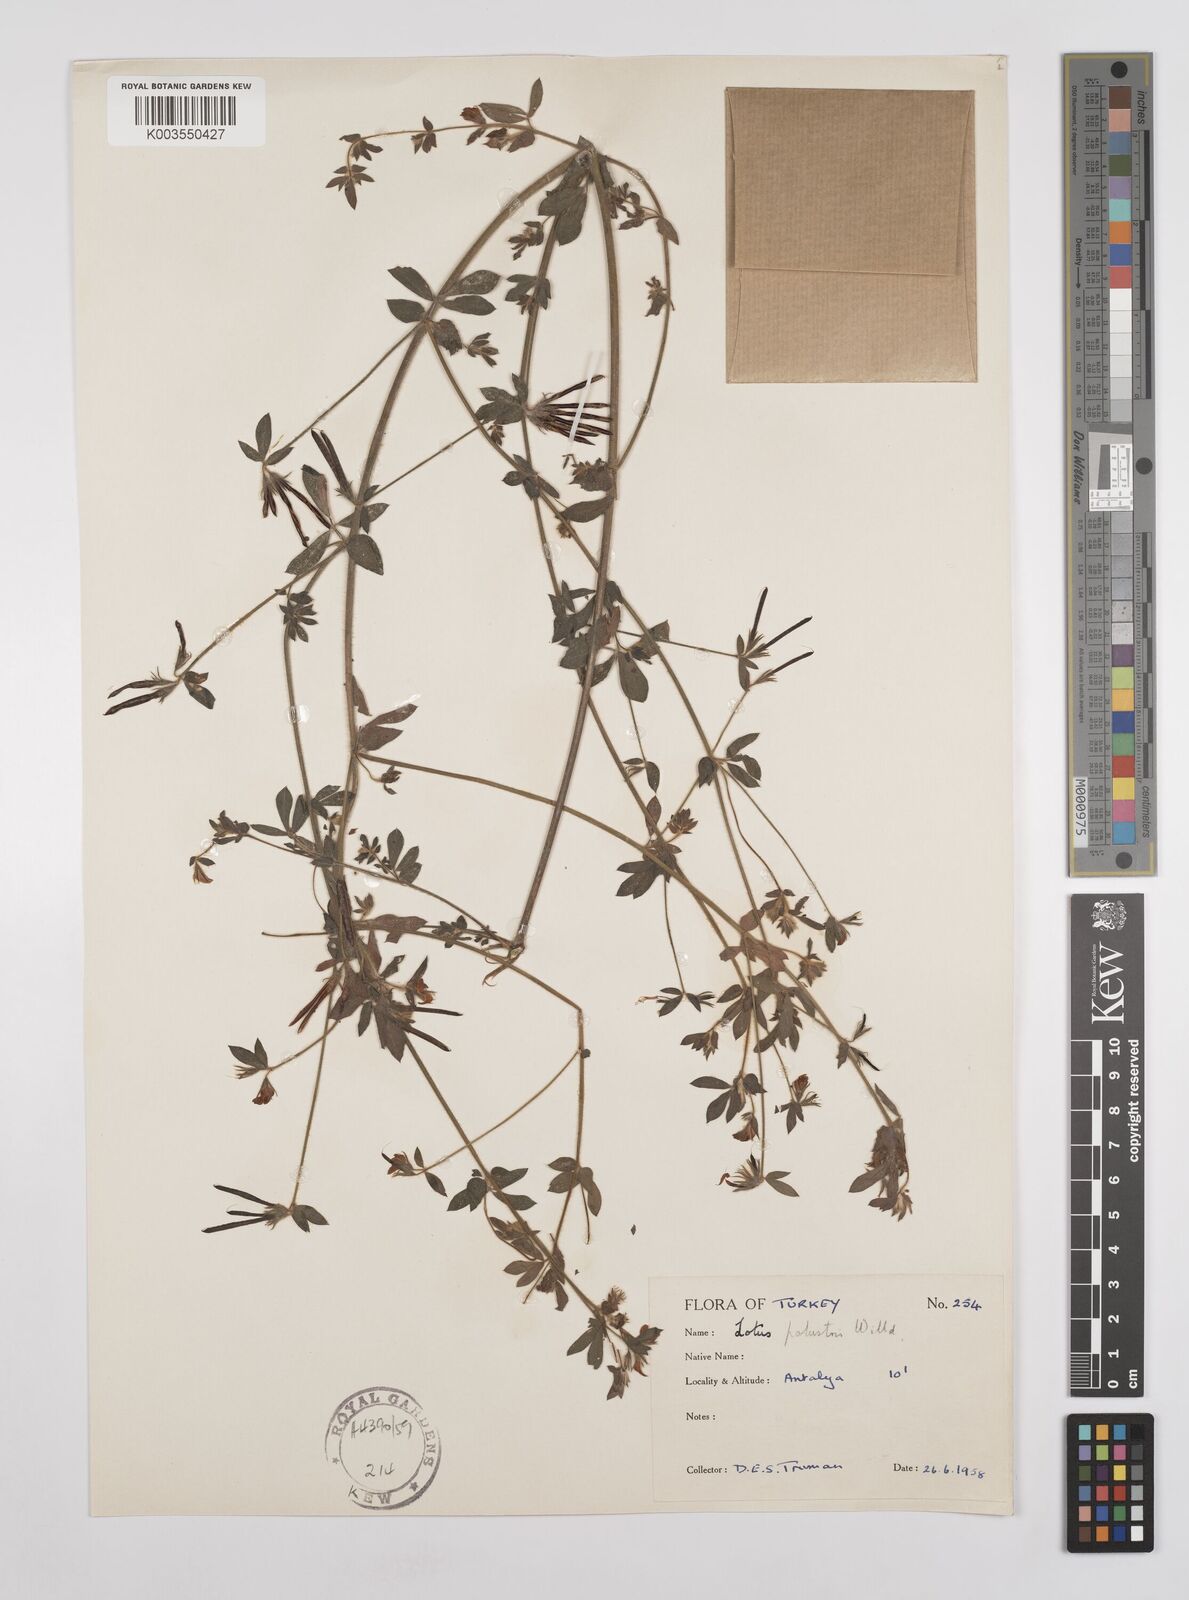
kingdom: Plantae
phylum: Tracheophyta
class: Magnoliopsida
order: Fabales
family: Fabaceae
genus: Lotus
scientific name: Lotus palustris
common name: Large birds-foot trefoil
